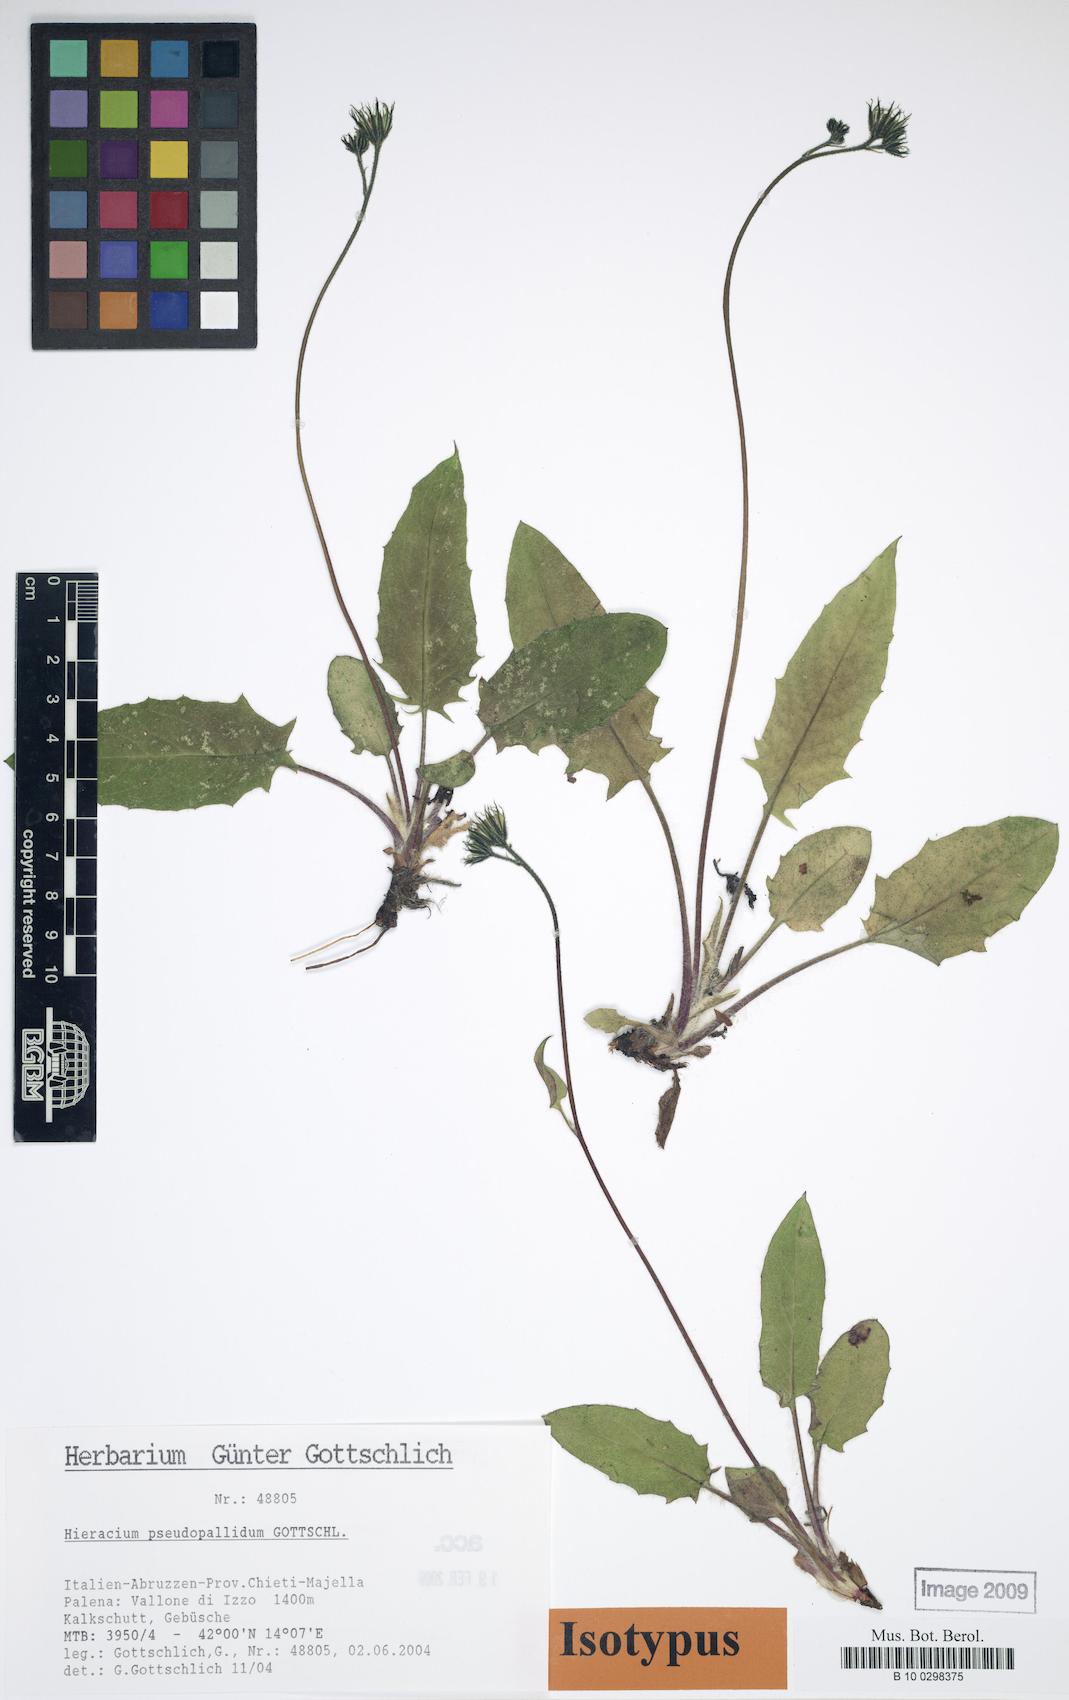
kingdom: Plantae
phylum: Tracheophyta
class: Magnoliopsida
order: Asterales
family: Asteraceae
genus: Hieracium
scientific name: Hieracium pseudopallidum
